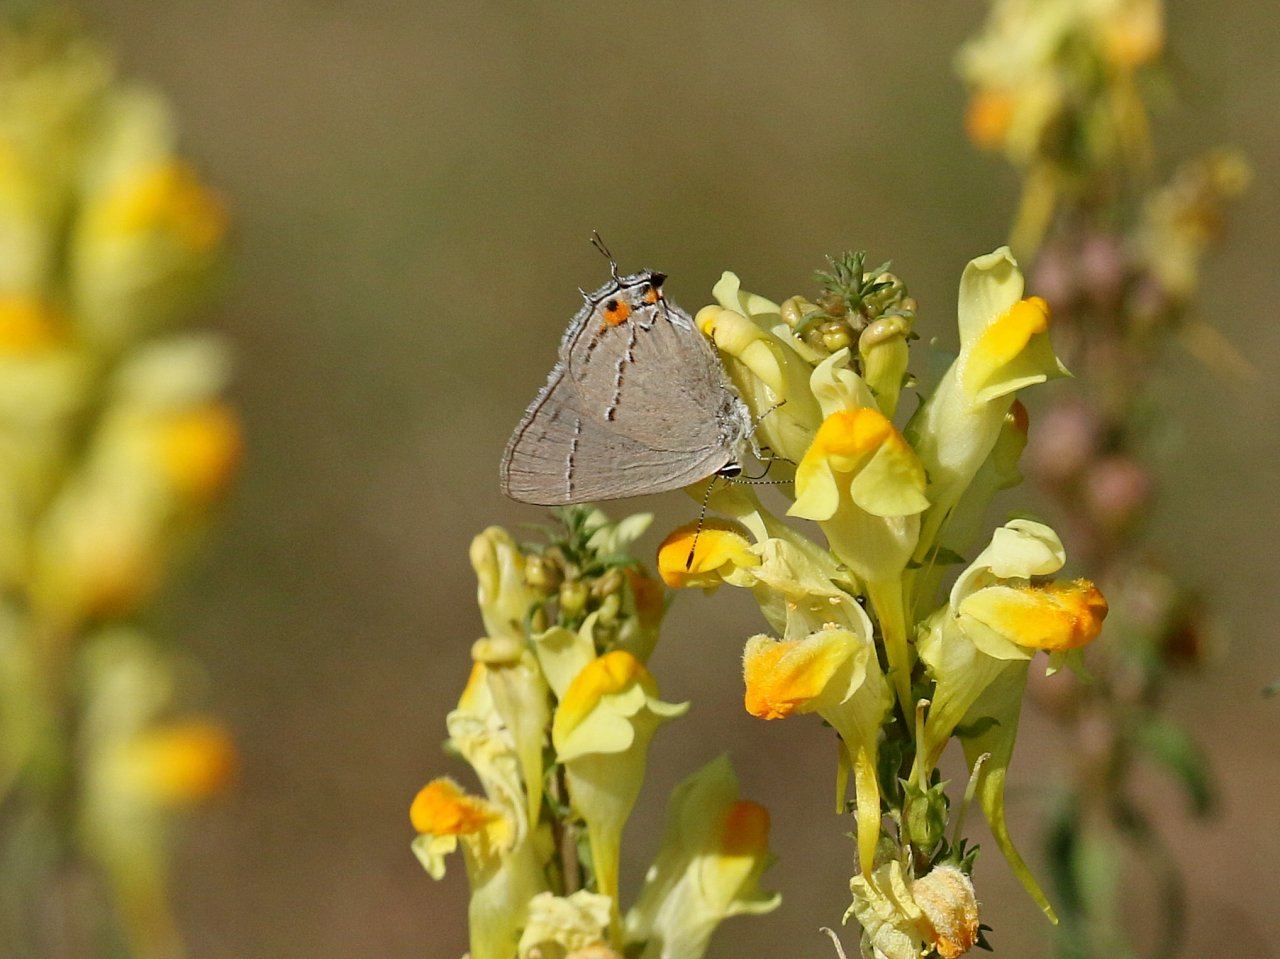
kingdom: Animalia
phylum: Arthropoda
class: Insecta
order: Lepidoptera
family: Lycaenidae
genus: Strymon
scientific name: Strymon melinus
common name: Gray Hairstreak
